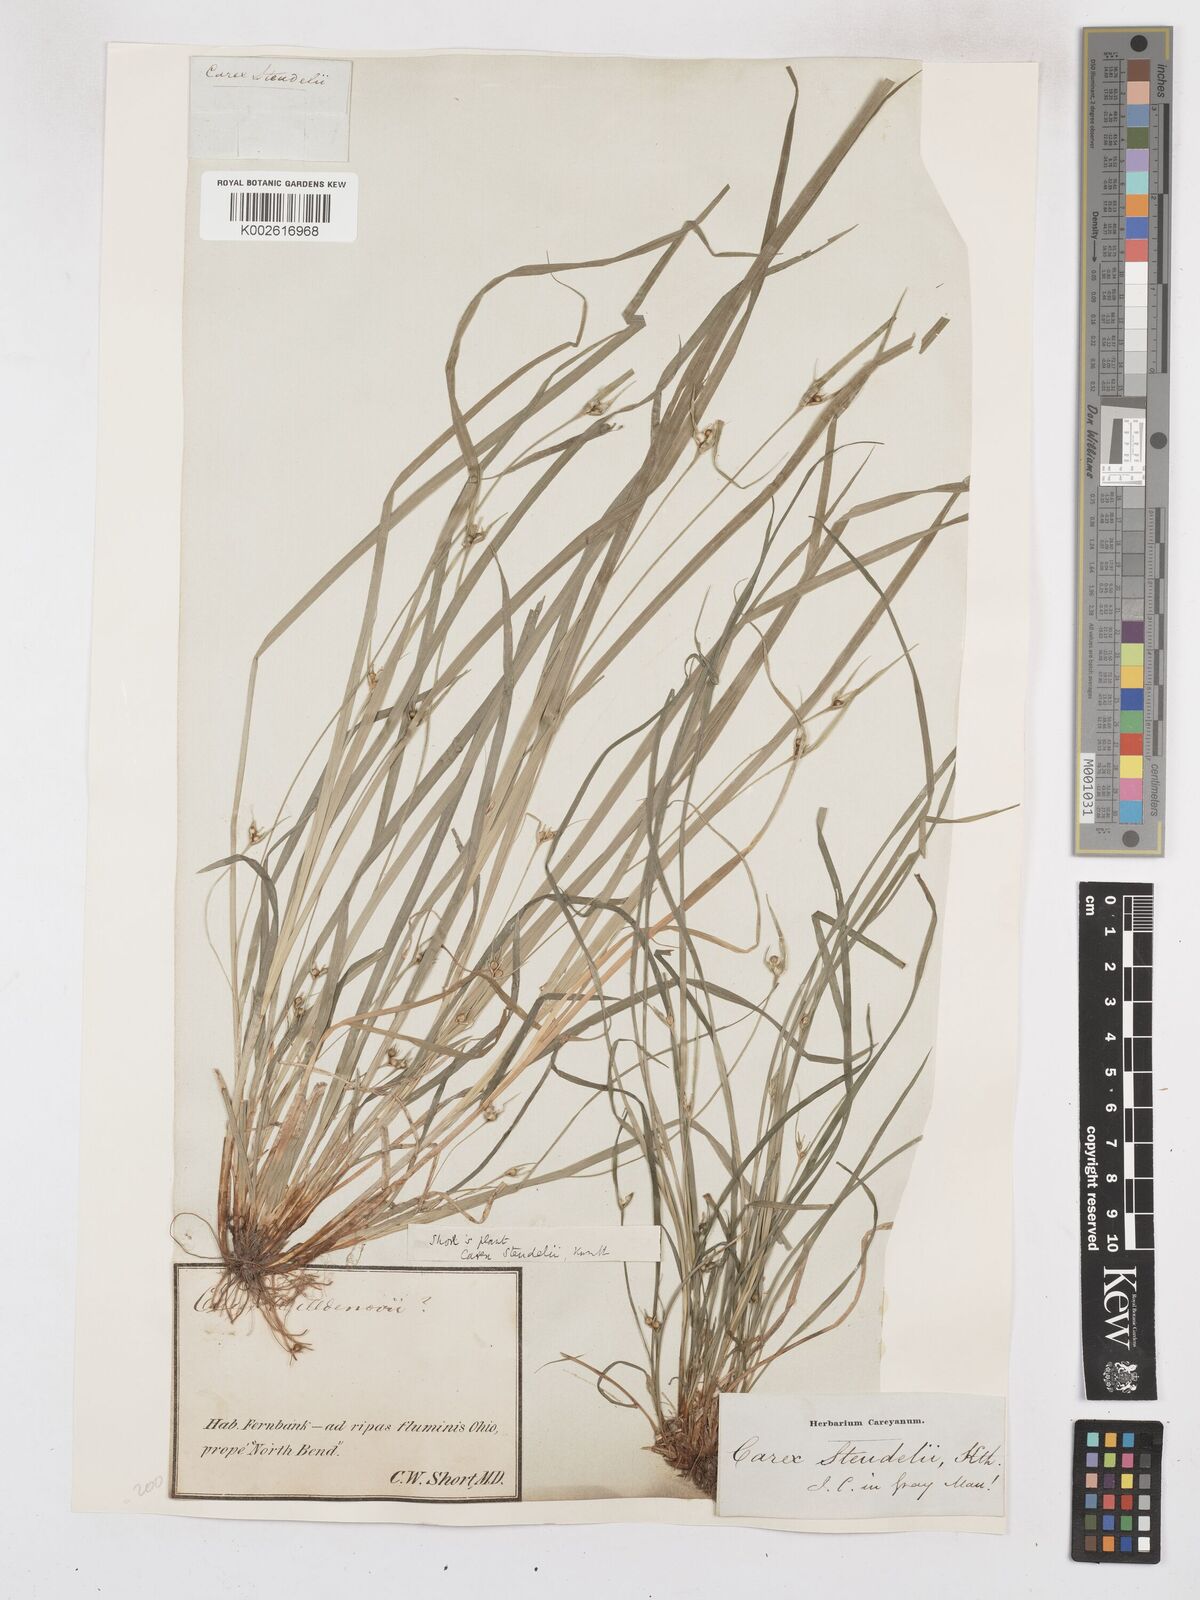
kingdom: Plantae
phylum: Tracheophyta
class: Liliopsida
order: Poales
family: Cyperaceae
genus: Carex
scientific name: Carex jamesii
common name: Grass sedge
